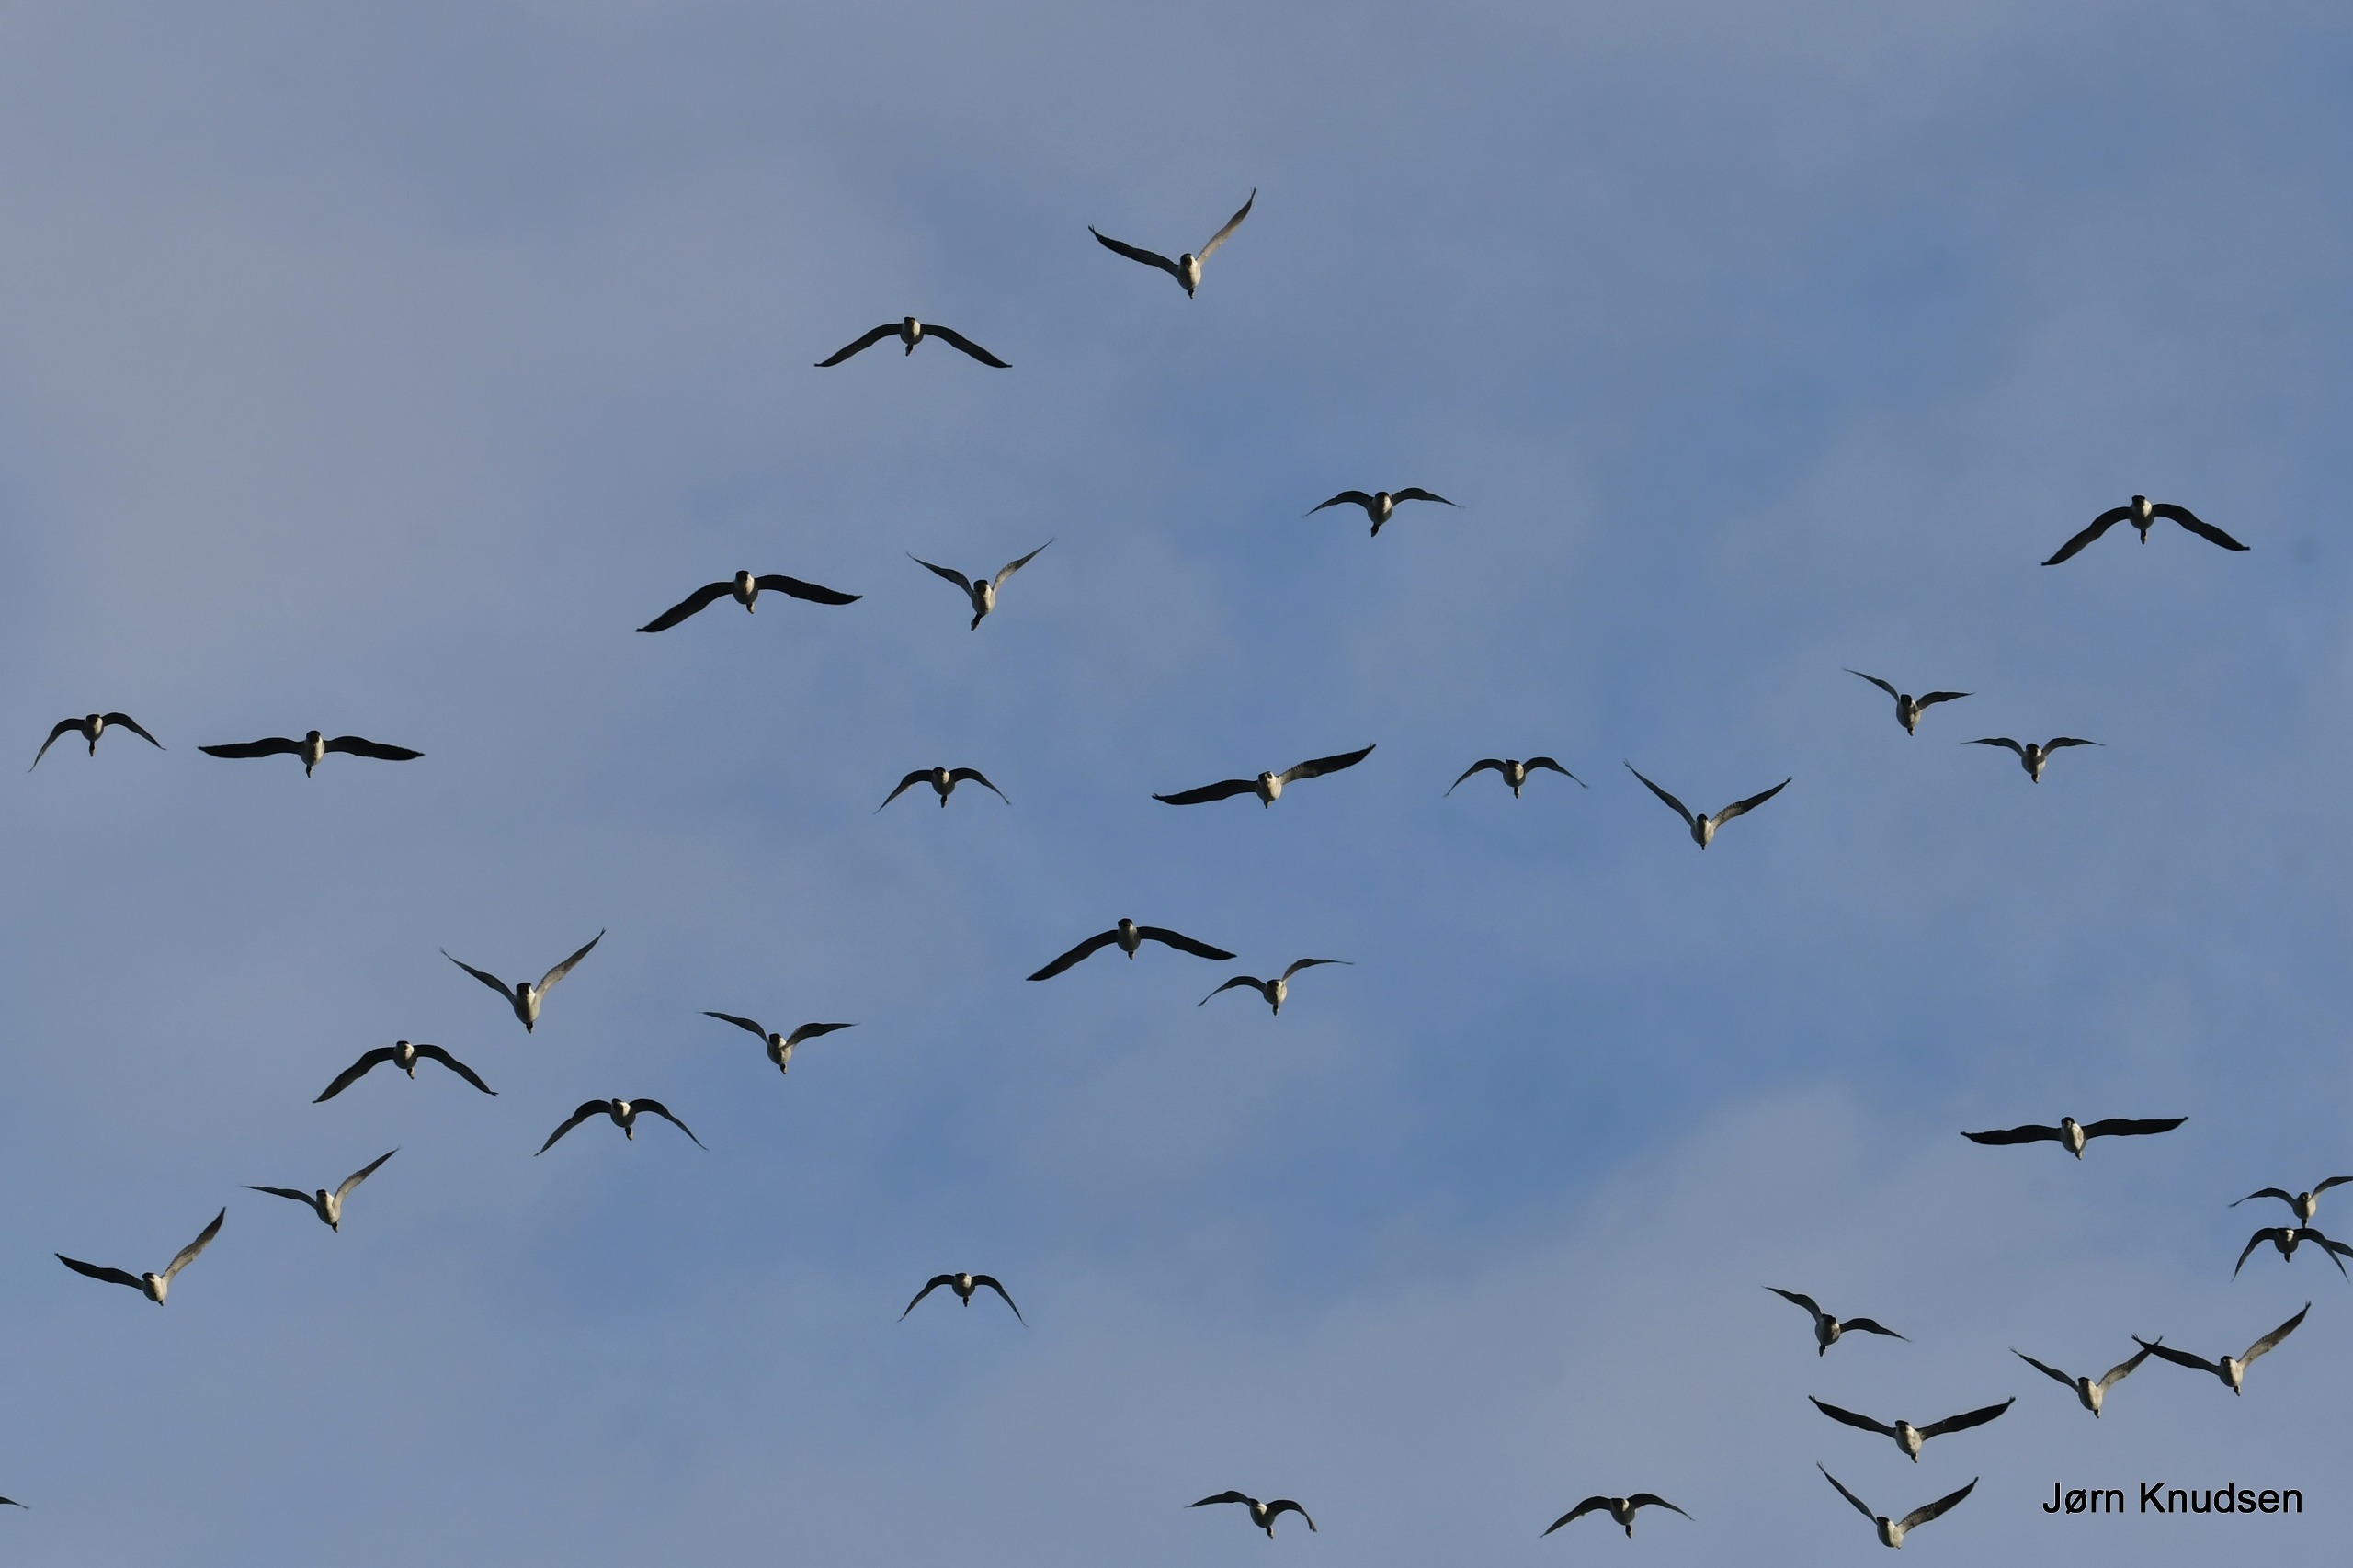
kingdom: Animalia
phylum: Chordata
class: Aves
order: Anseriformes
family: Anatidae
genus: Branta
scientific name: Branta leucopsis
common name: Bramgås
